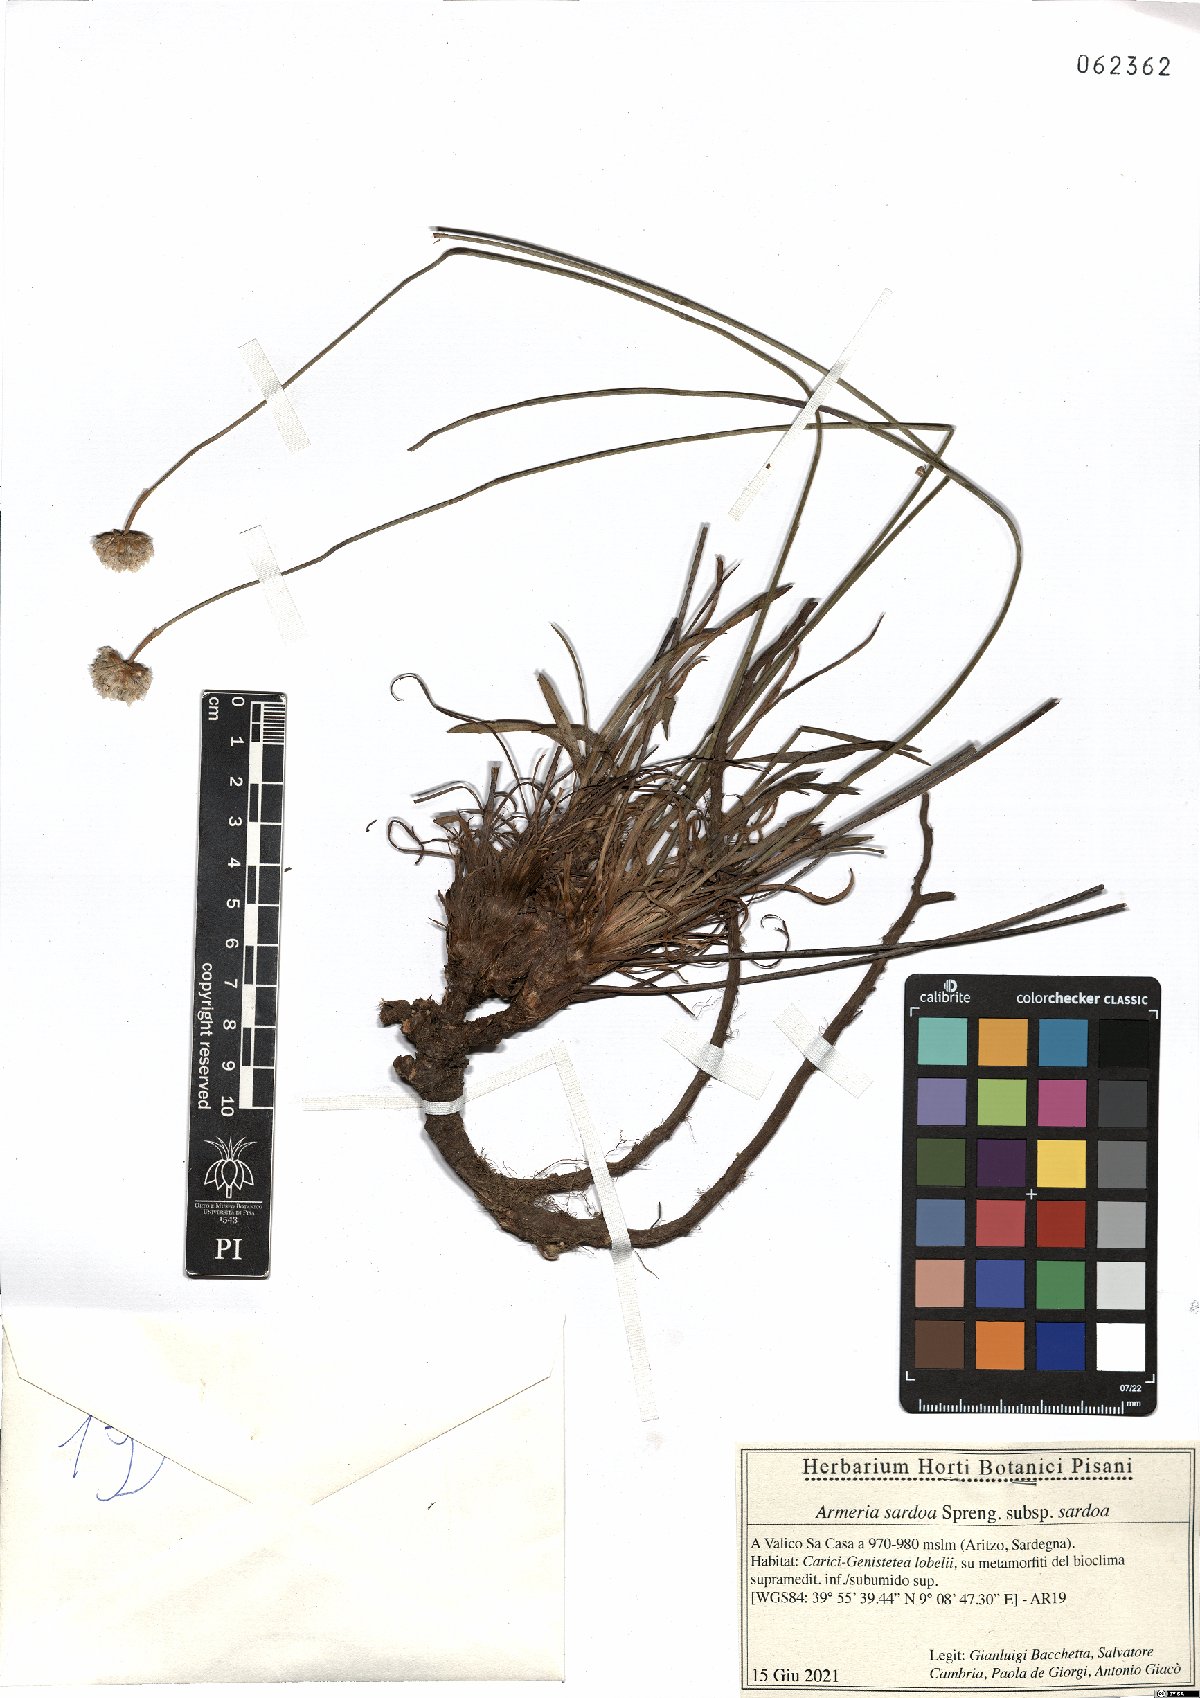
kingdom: Plantae
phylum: Tracheophyta
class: Magnoliopsida
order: Caryophyllales
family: Plumbaginaceae
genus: Armeria
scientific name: Armeria sardoa
